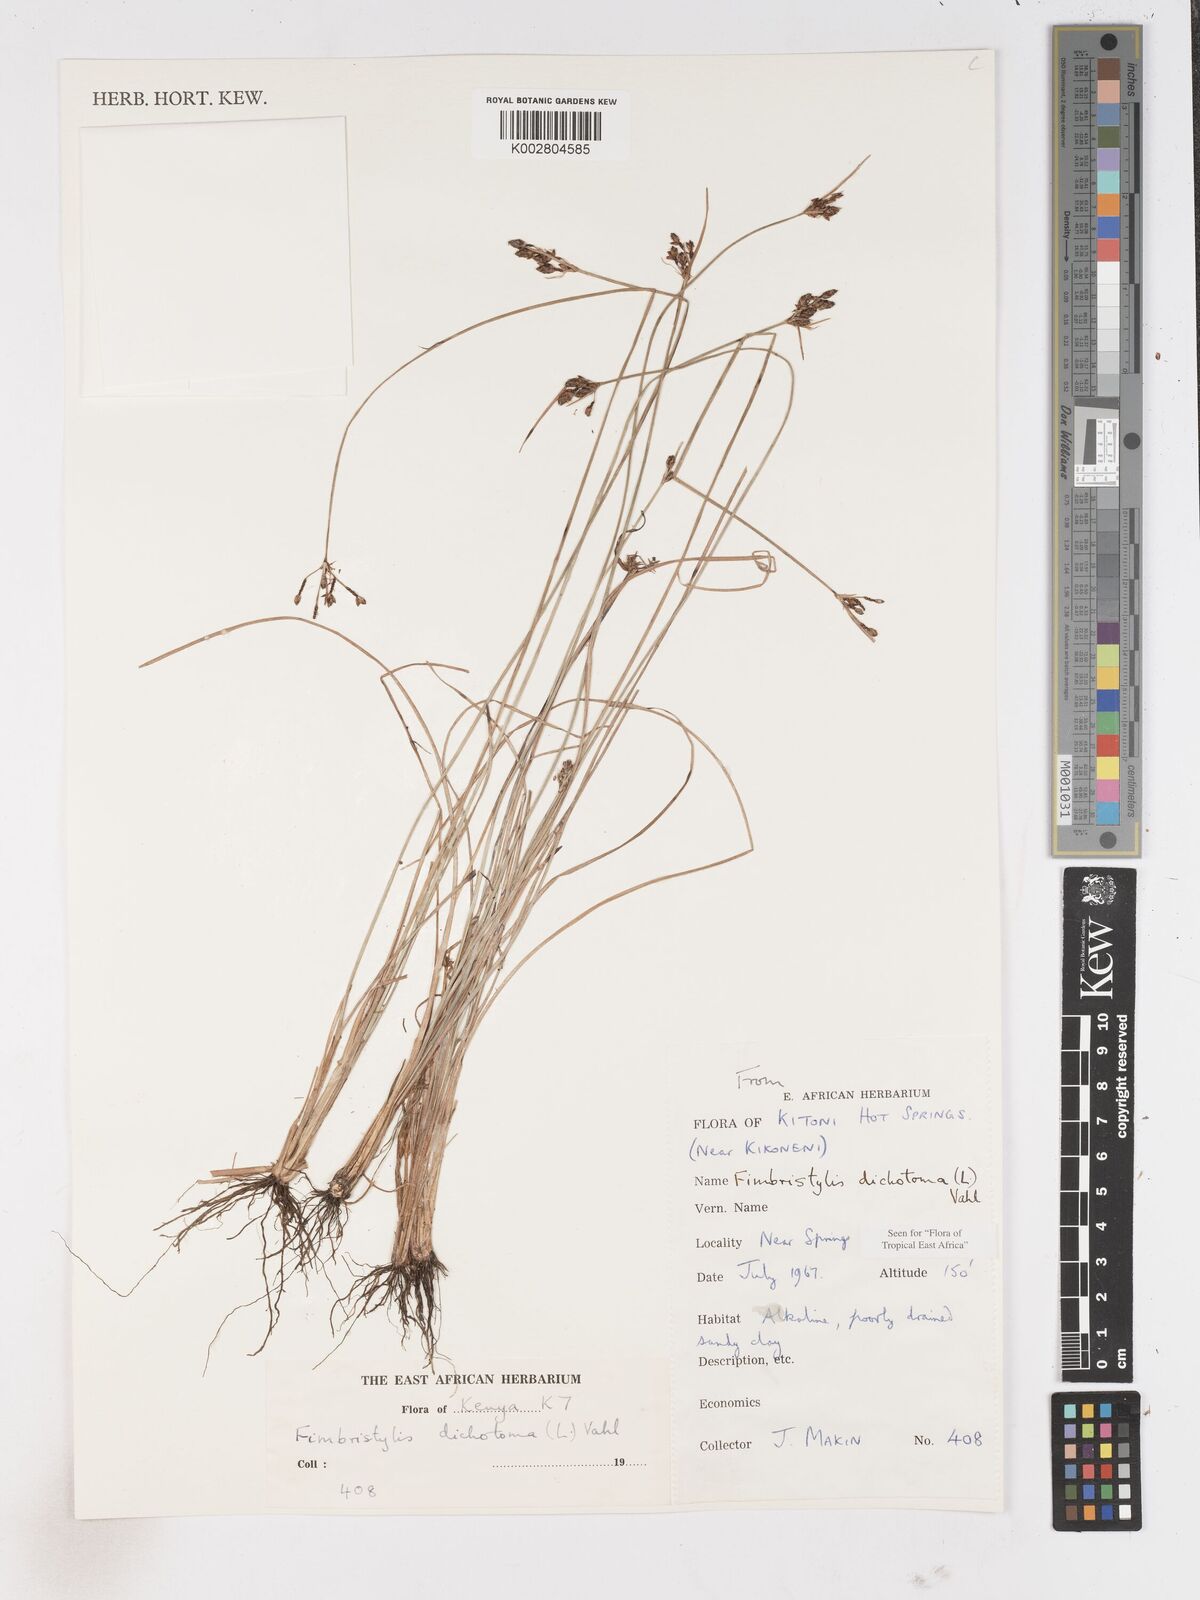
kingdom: Plantae
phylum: Tracheophyta
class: Liliopsida
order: Poales
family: Cyperaceae
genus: Fimbristylis
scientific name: Fimbristylis dichotoma
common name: Forked fimbry
